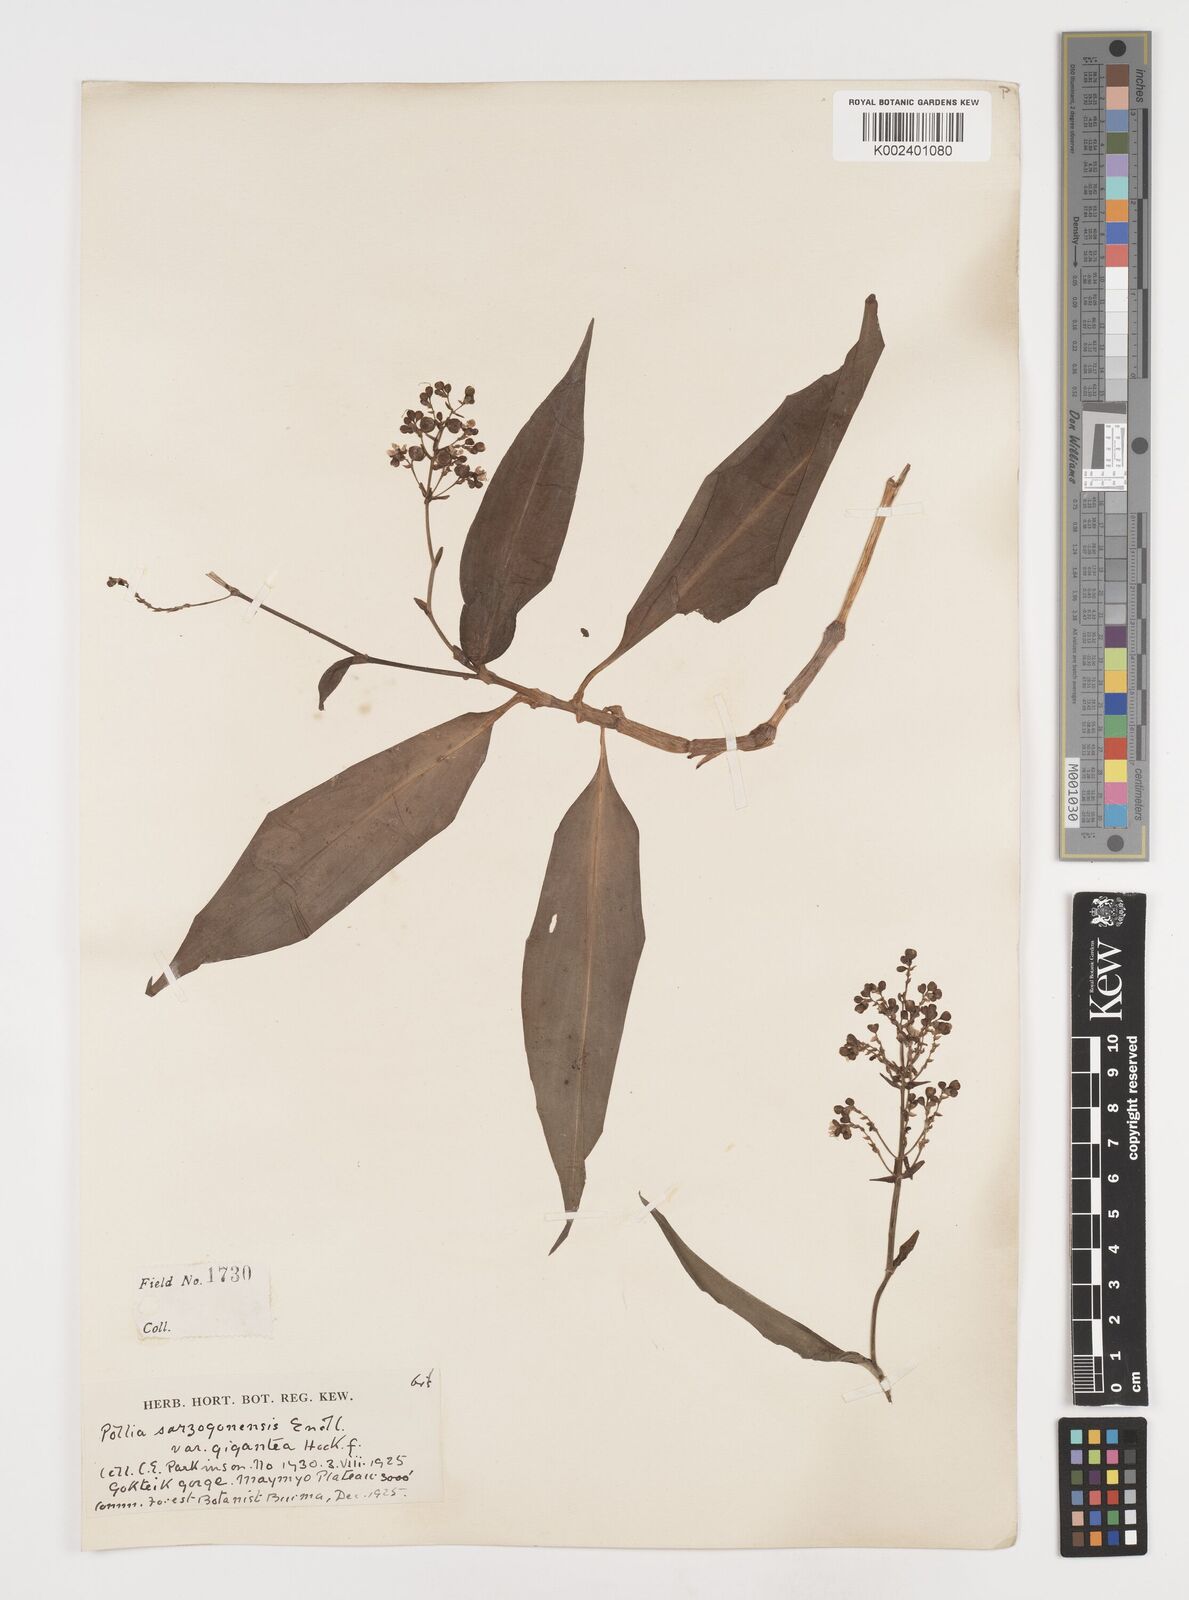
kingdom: Plantae
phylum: Tracheophyta
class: Liliopsida
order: Commelinales
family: Commelinaceae
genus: Pollia
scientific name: Pollia secundiflora
